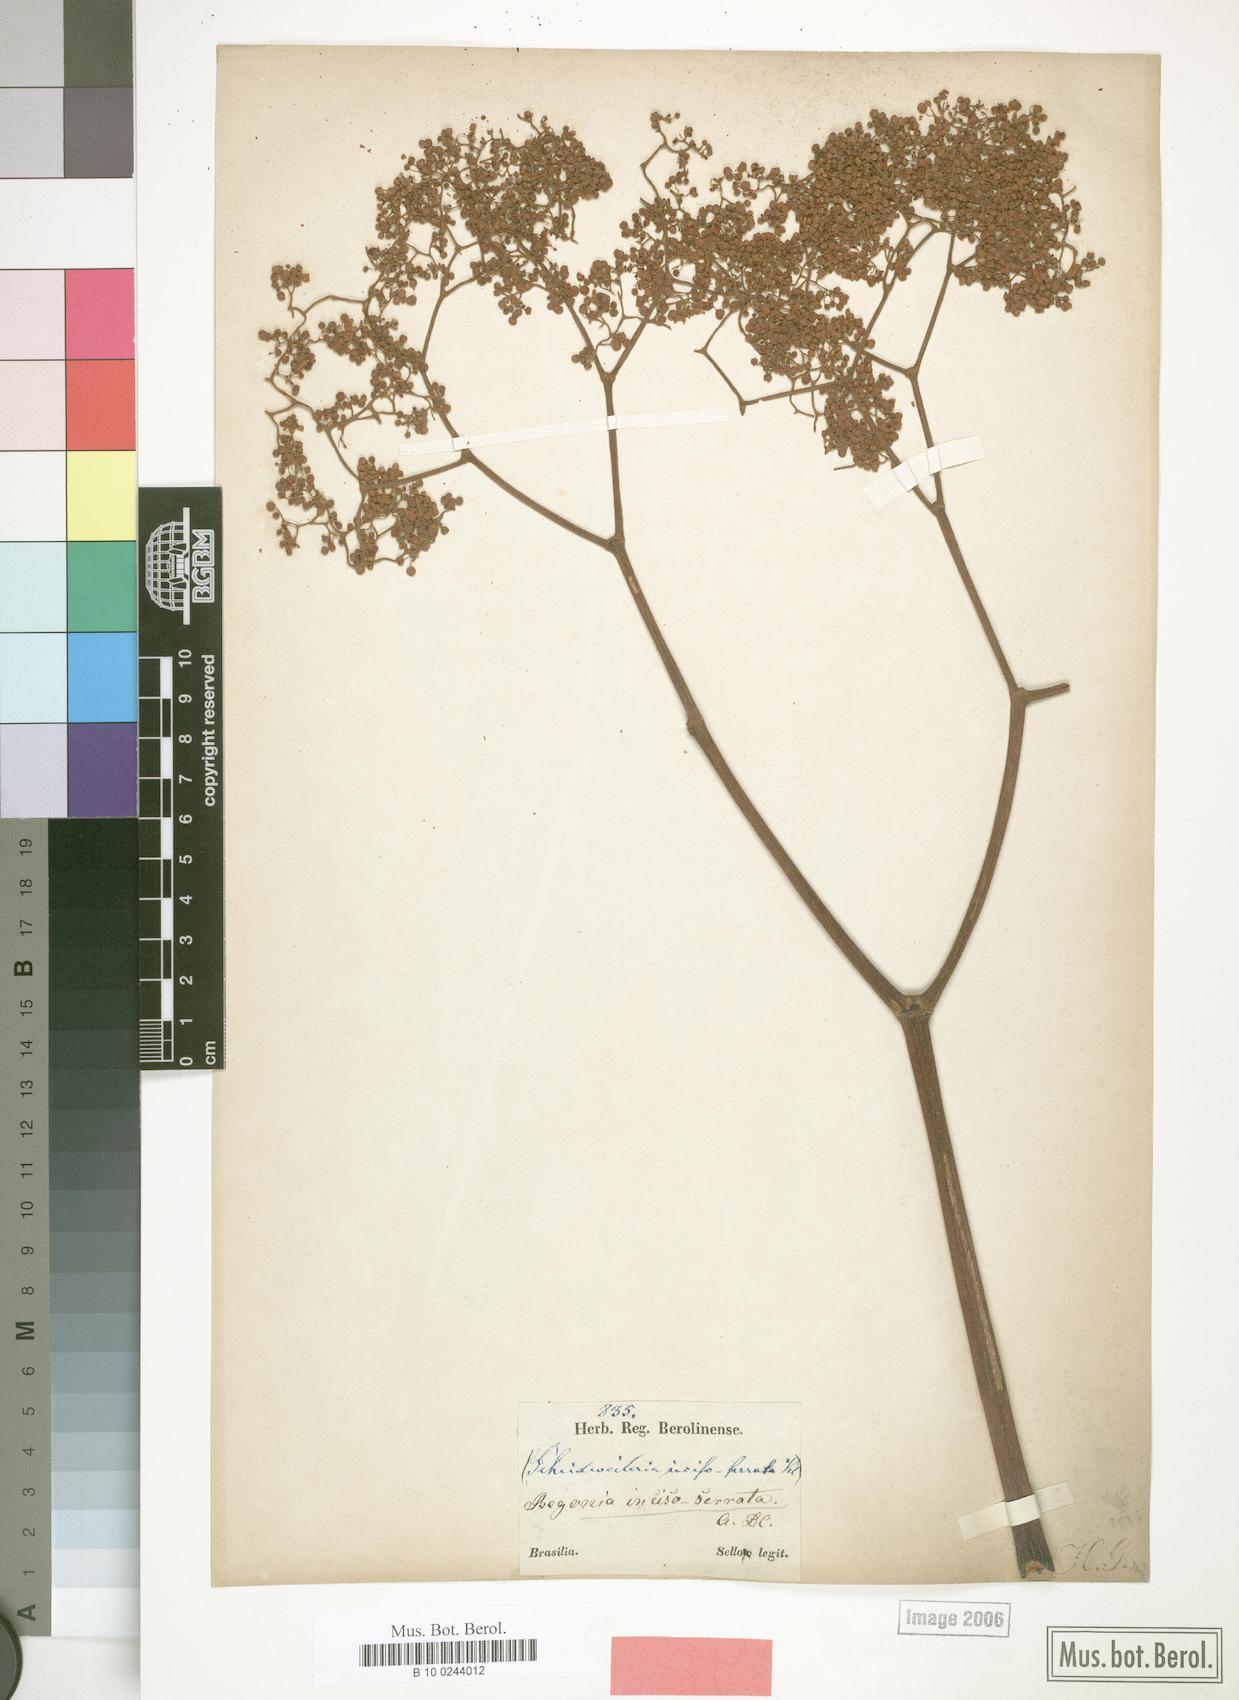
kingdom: Plantae
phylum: Tracheophyta
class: Magnoliopsida
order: Cucurbitales
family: Begoniaceae
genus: Begonia
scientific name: Begonia incisoserrata
